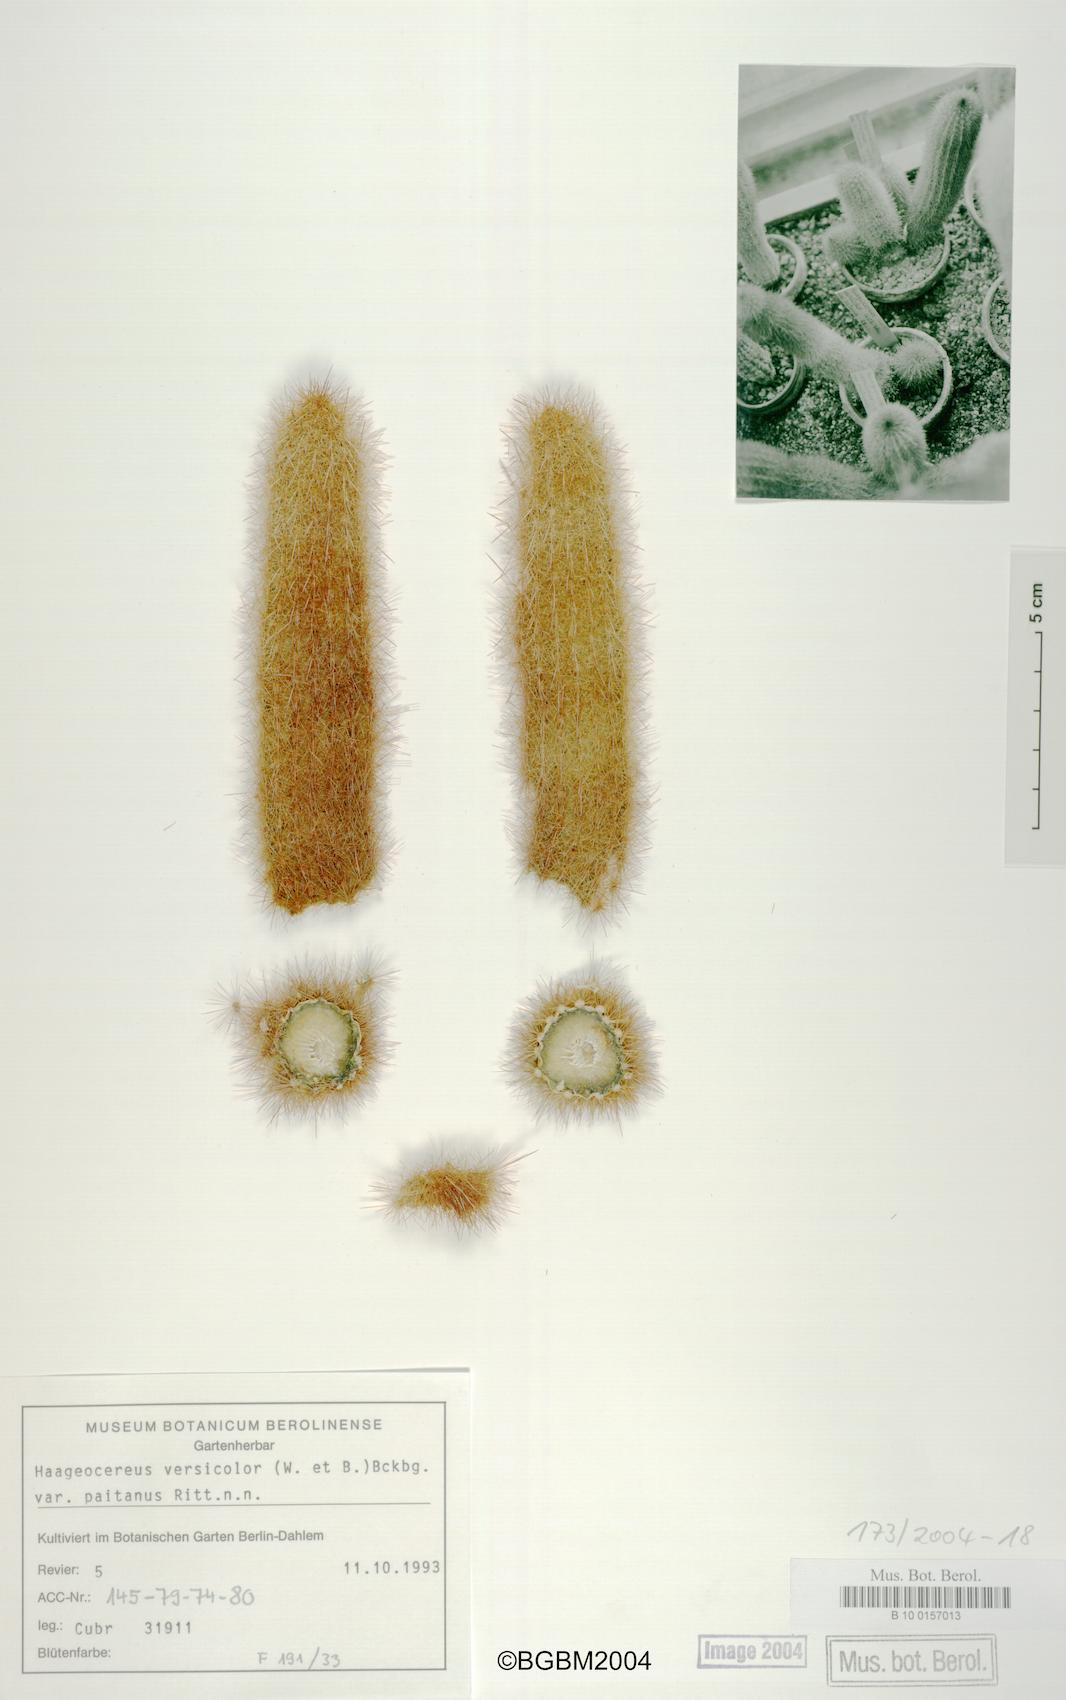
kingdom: Plantae
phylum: Tracheophyta
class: Magnoliopsida
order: Caryophyllales
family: Cactaceae
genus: Haageocereus
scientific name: Haageocereus versicolor
